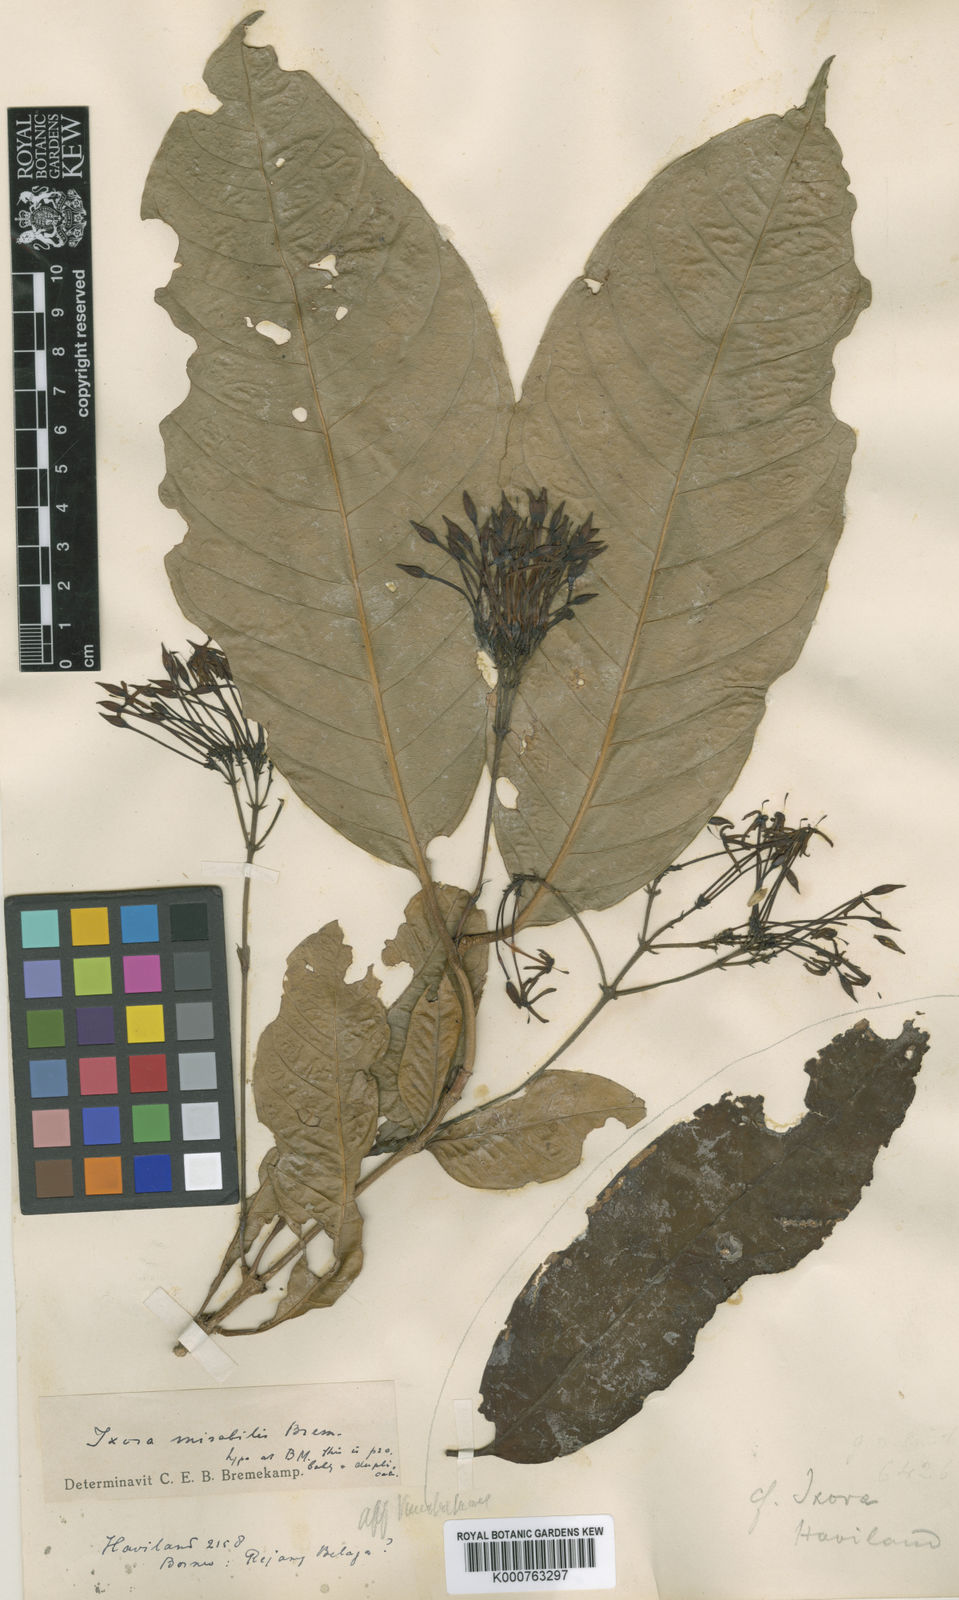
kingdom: Plantae
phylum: Tracheophyta
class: Magnoliopsida
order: Gentianales
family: Rubiaceae
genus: Ixora
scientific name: Ixora mirabilis
